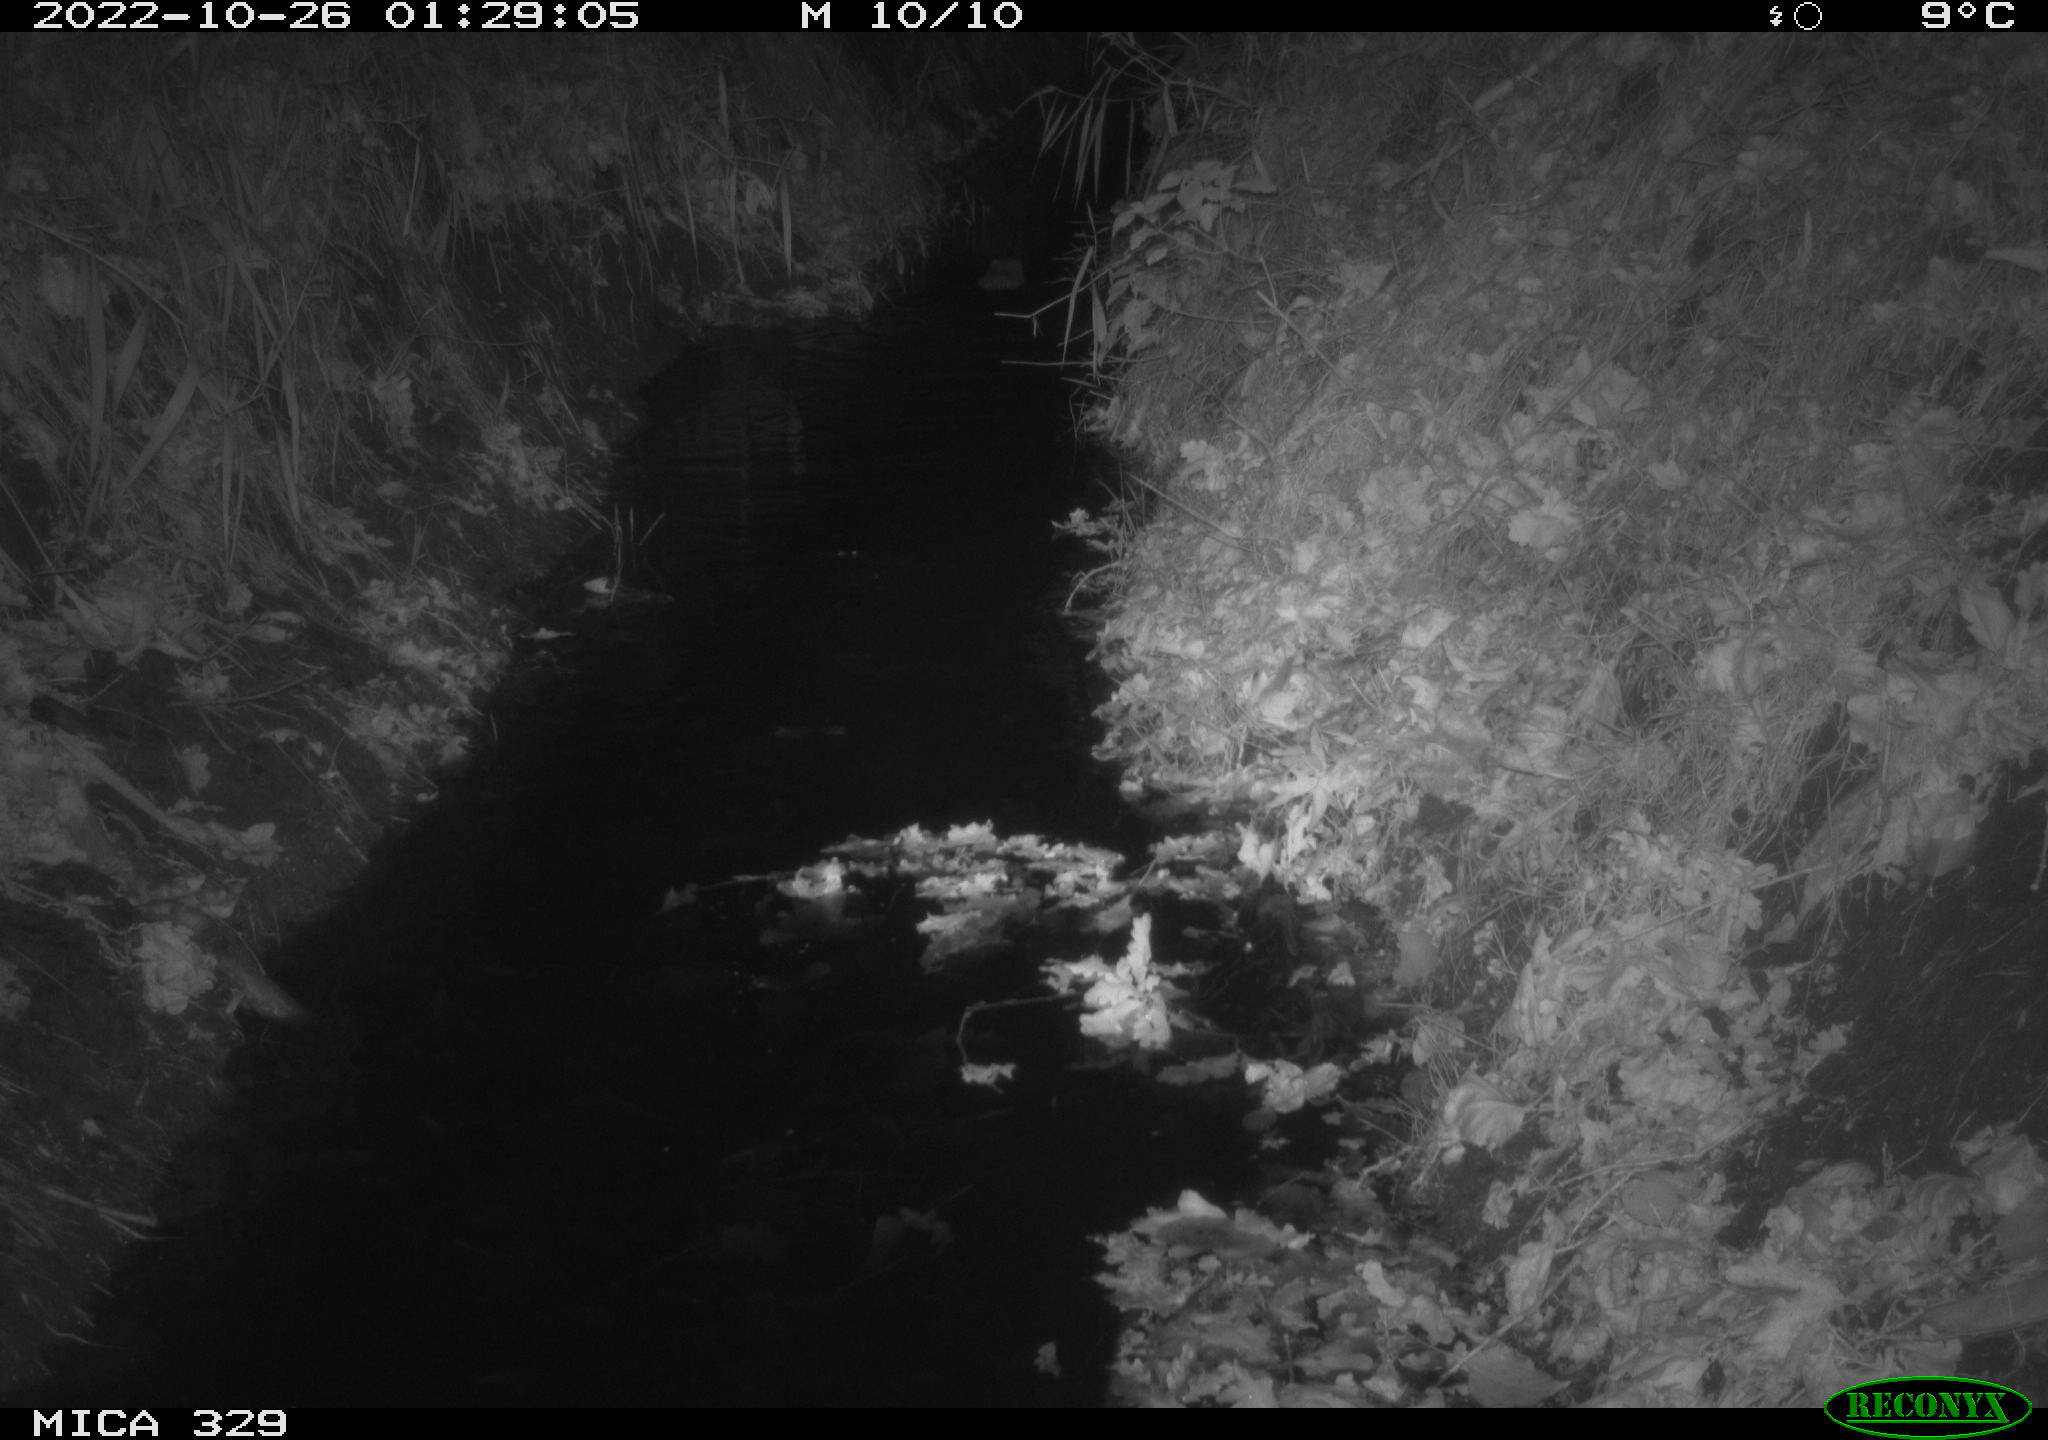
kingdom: Animalia
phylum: Chordata
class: Mammalia
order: Rodentia
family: Cricetidae
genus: Ondatra
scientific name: Ondatra zibethicus
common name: Muskrat
